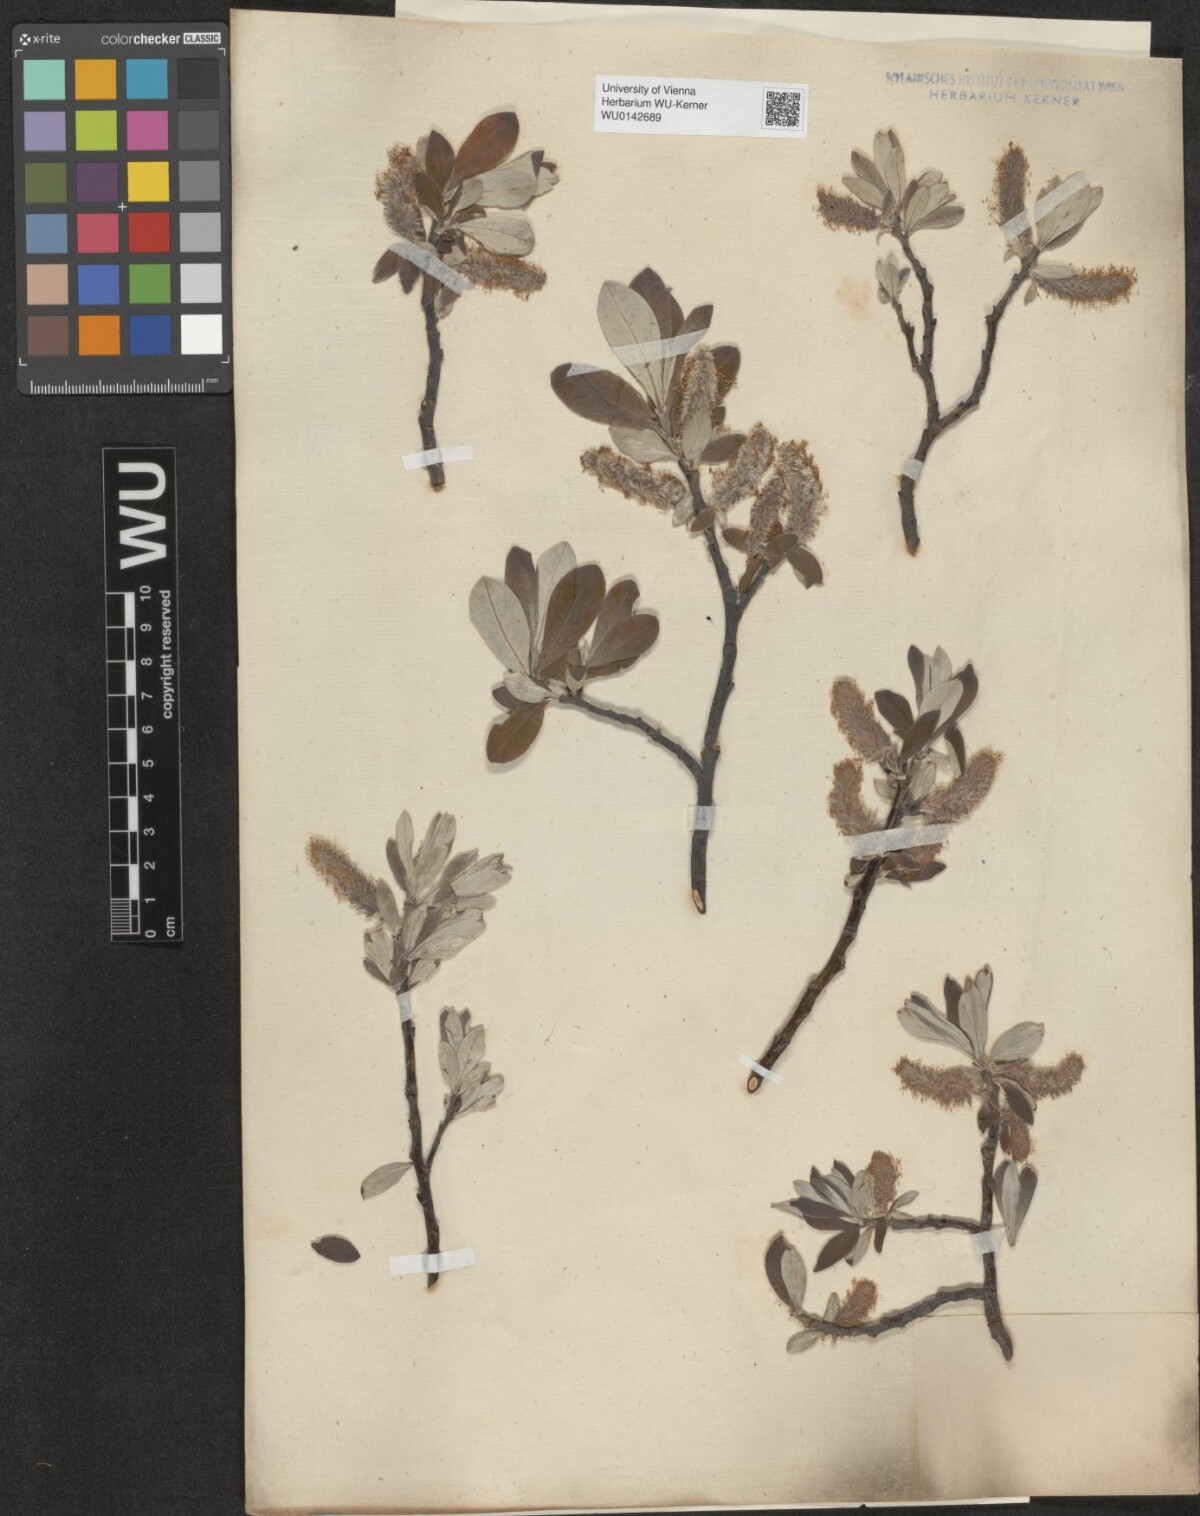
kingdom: Plantae
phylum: Tracheophyta
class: Magnoliopsida
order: Malpighiales
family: Salicaceae
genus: Salix
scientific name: Salix helvetica
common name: Swiss willow
